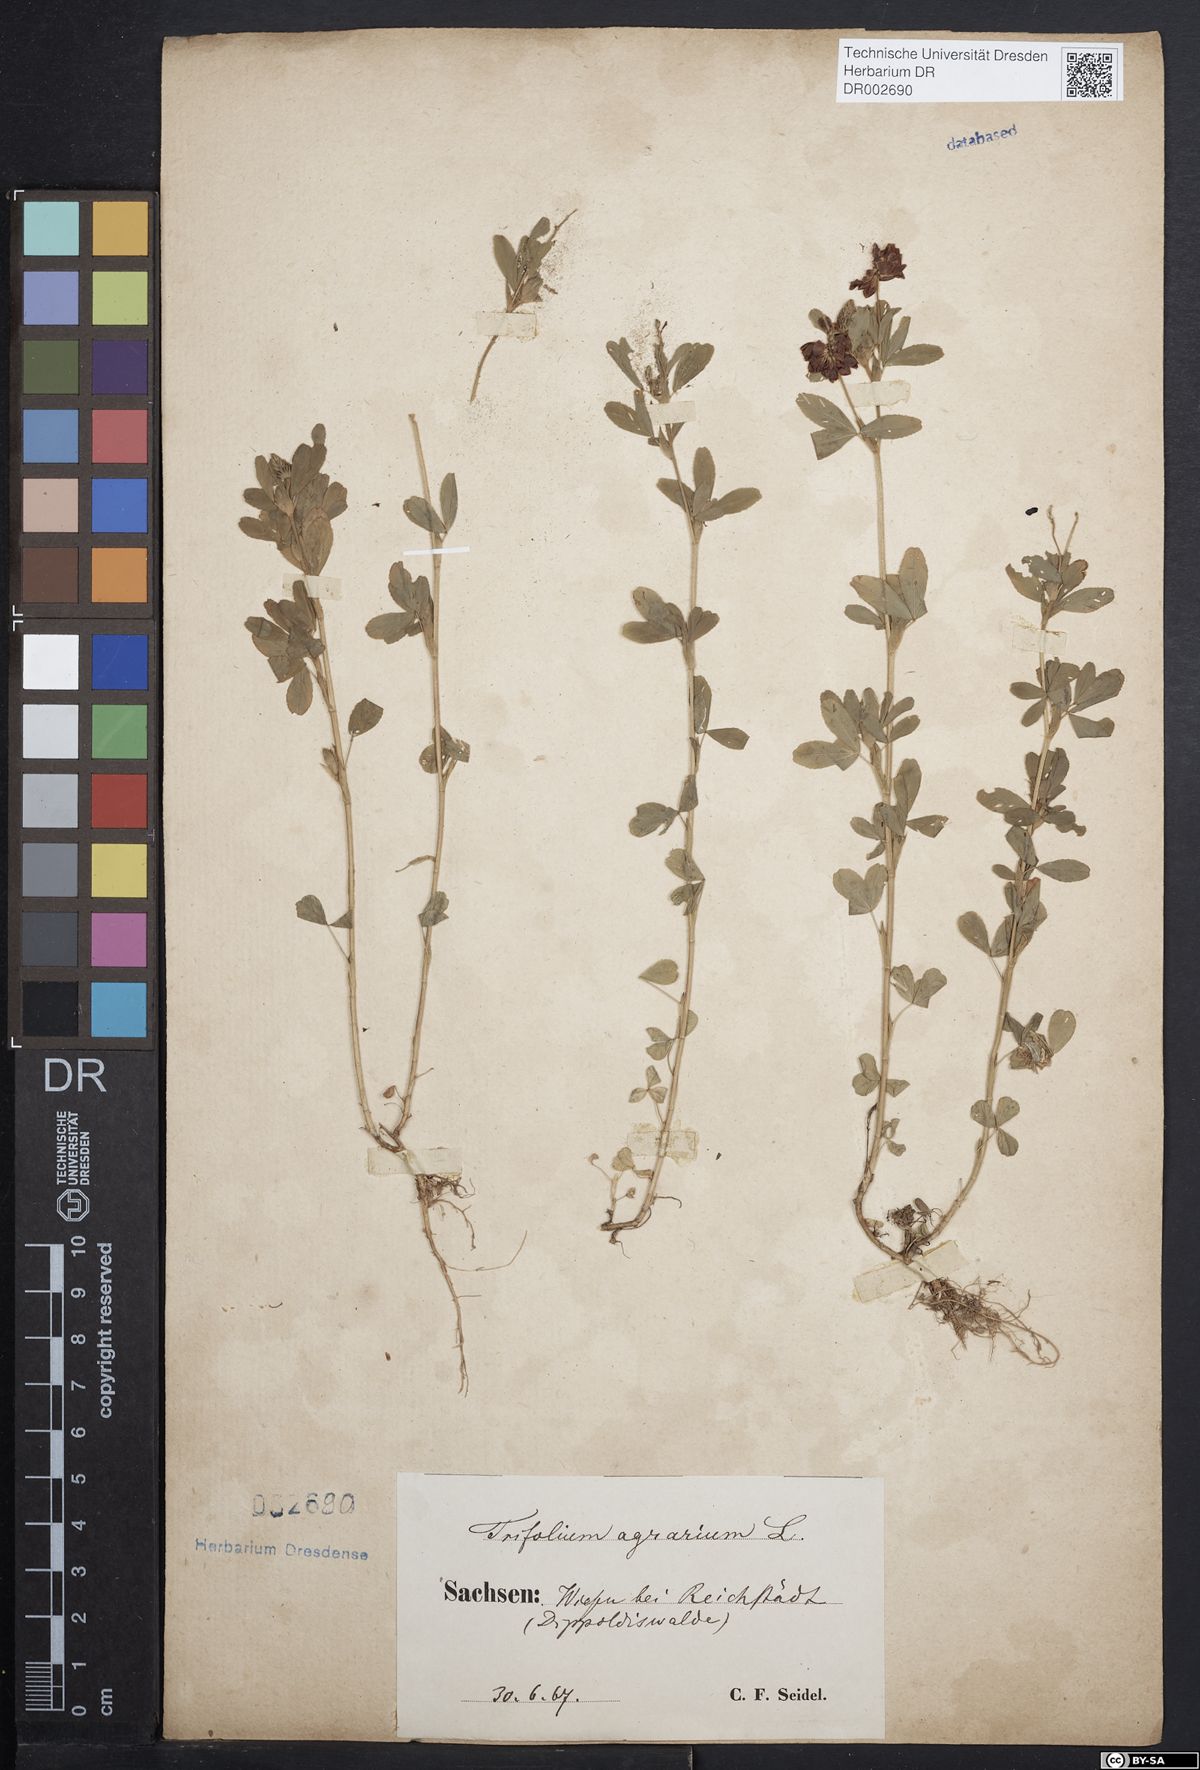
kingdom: Plantae
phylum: Tracheophyta
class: Magnoliopsida
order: Fabales
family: Fabaceae
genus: Trifolium
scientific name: Trifolium aureum
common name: Golden clover
